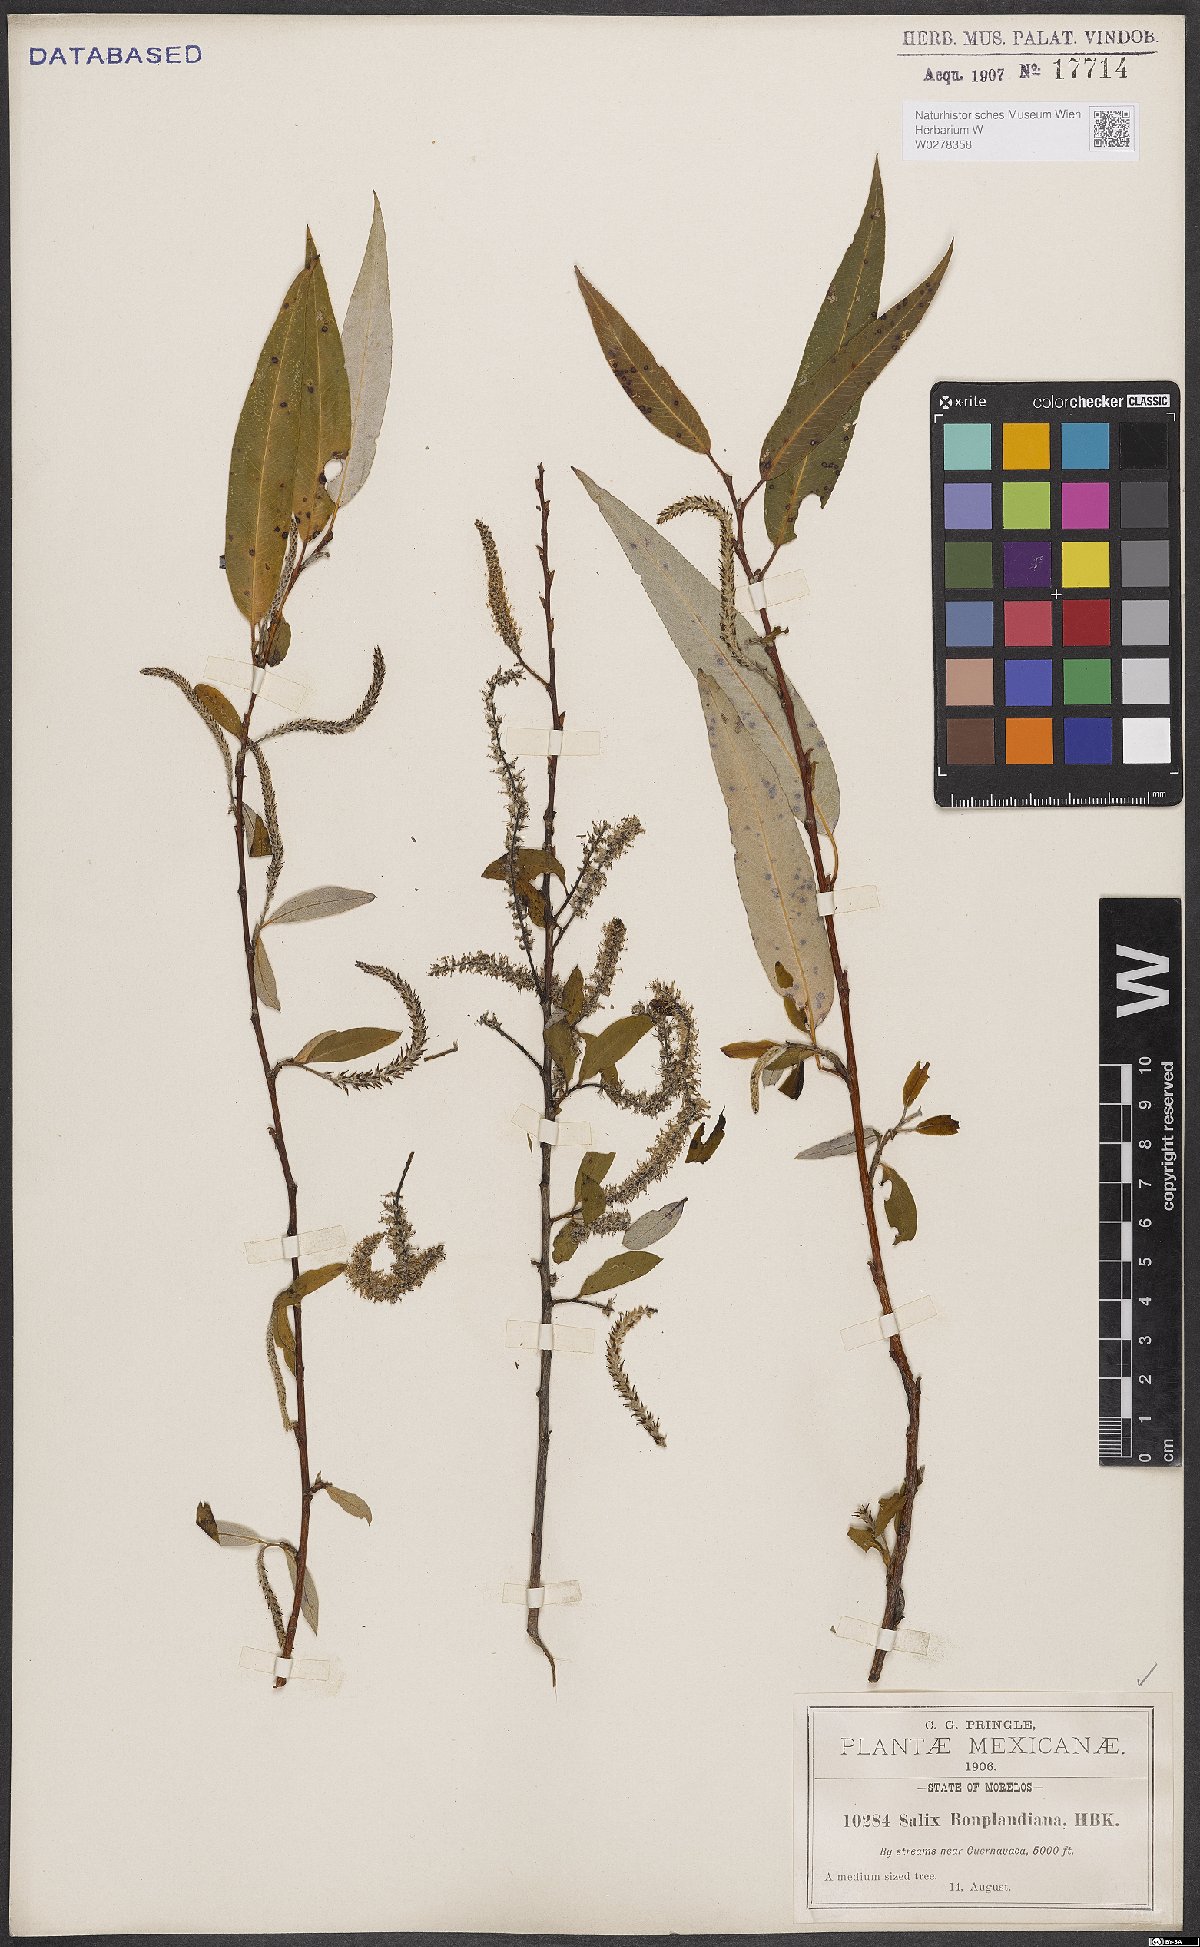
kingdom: Plantae
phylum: Tracheophyta
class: Magnoliopsida
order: Malpighiales
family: Salicaceae
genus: Salix
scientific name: Salix bonplandiana
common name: Bonpland’s willow
